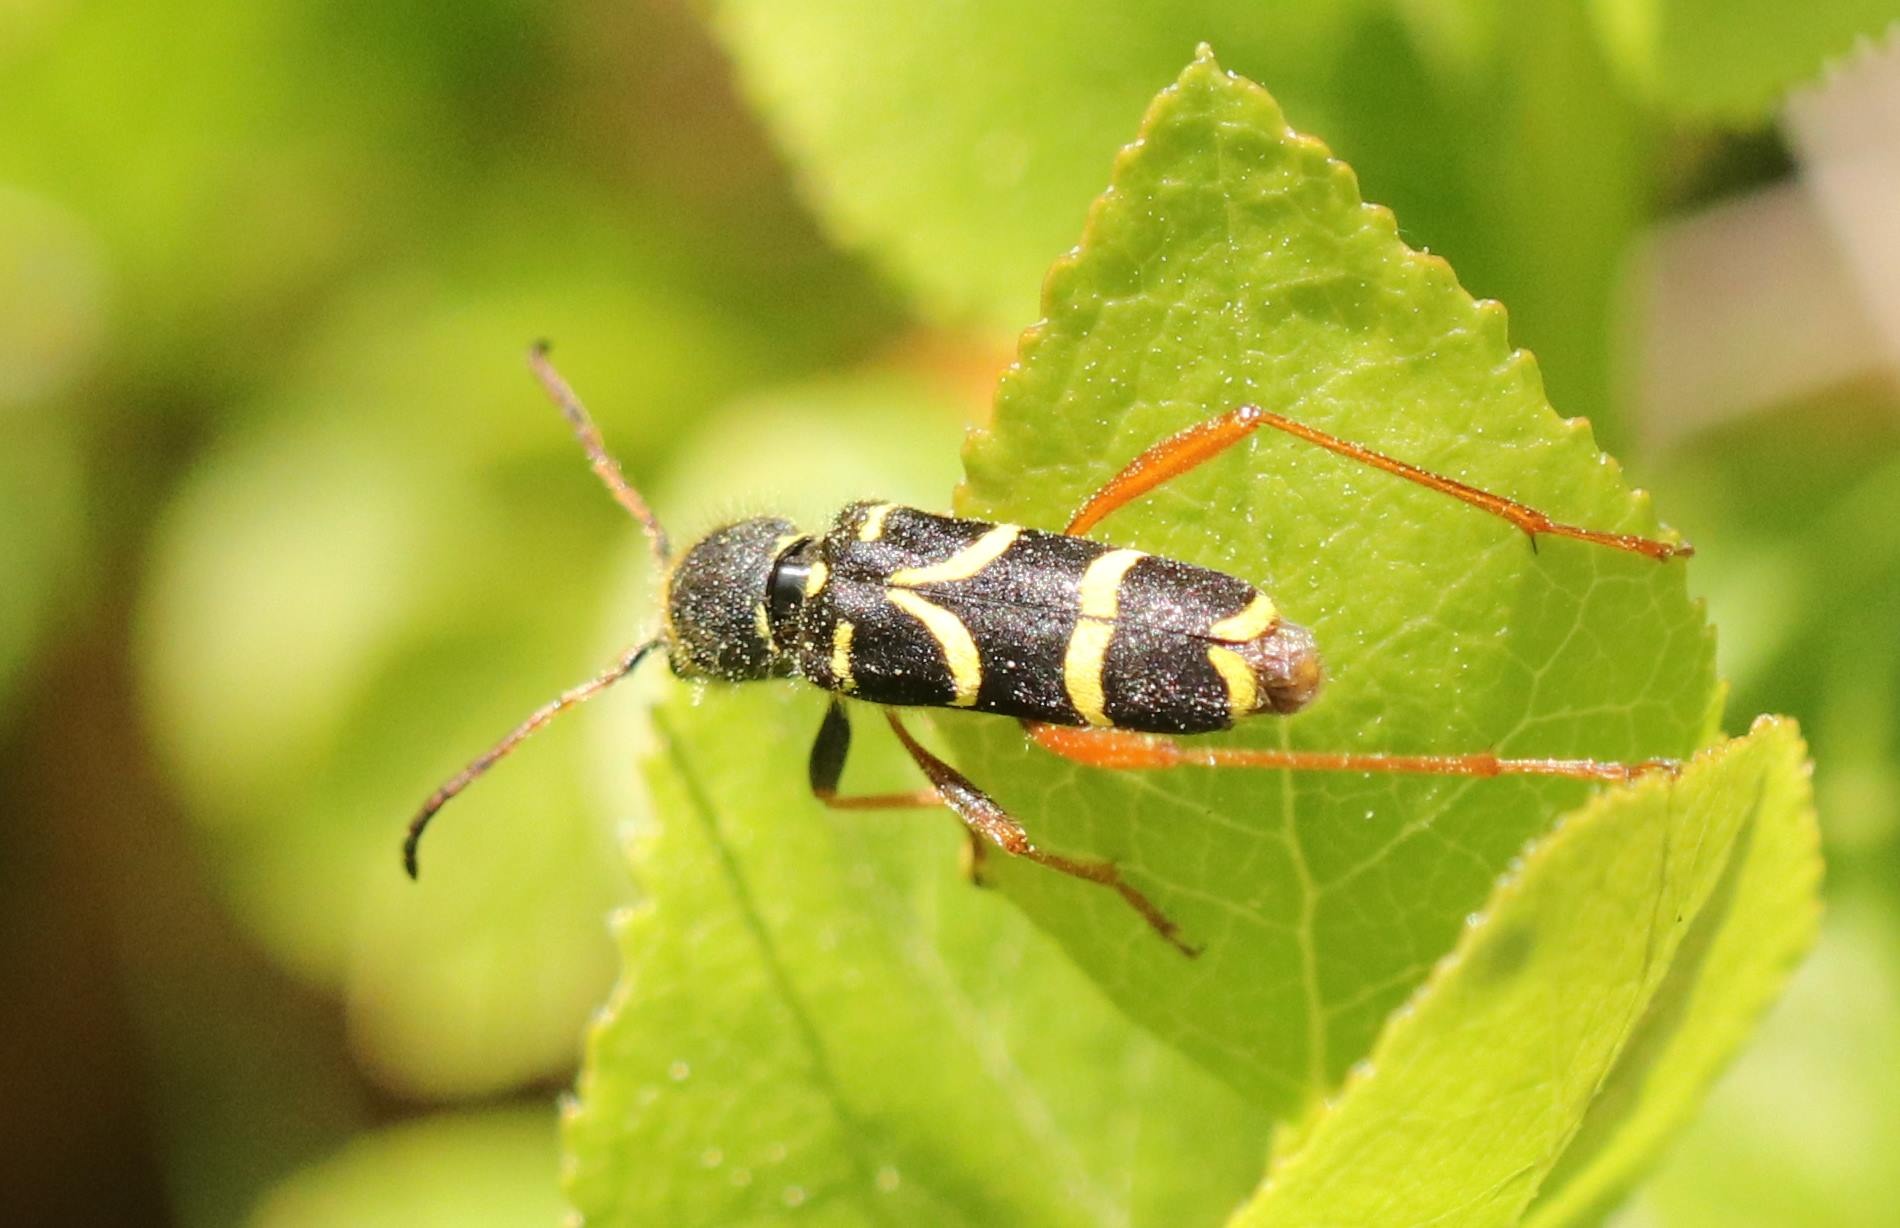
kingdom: Animalia
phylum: Arthropoda
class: Insecta
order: Coleoptera
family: Cerambycidae
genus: Clytus
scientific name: Clytus arietis
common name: Lille hvepsebuk
